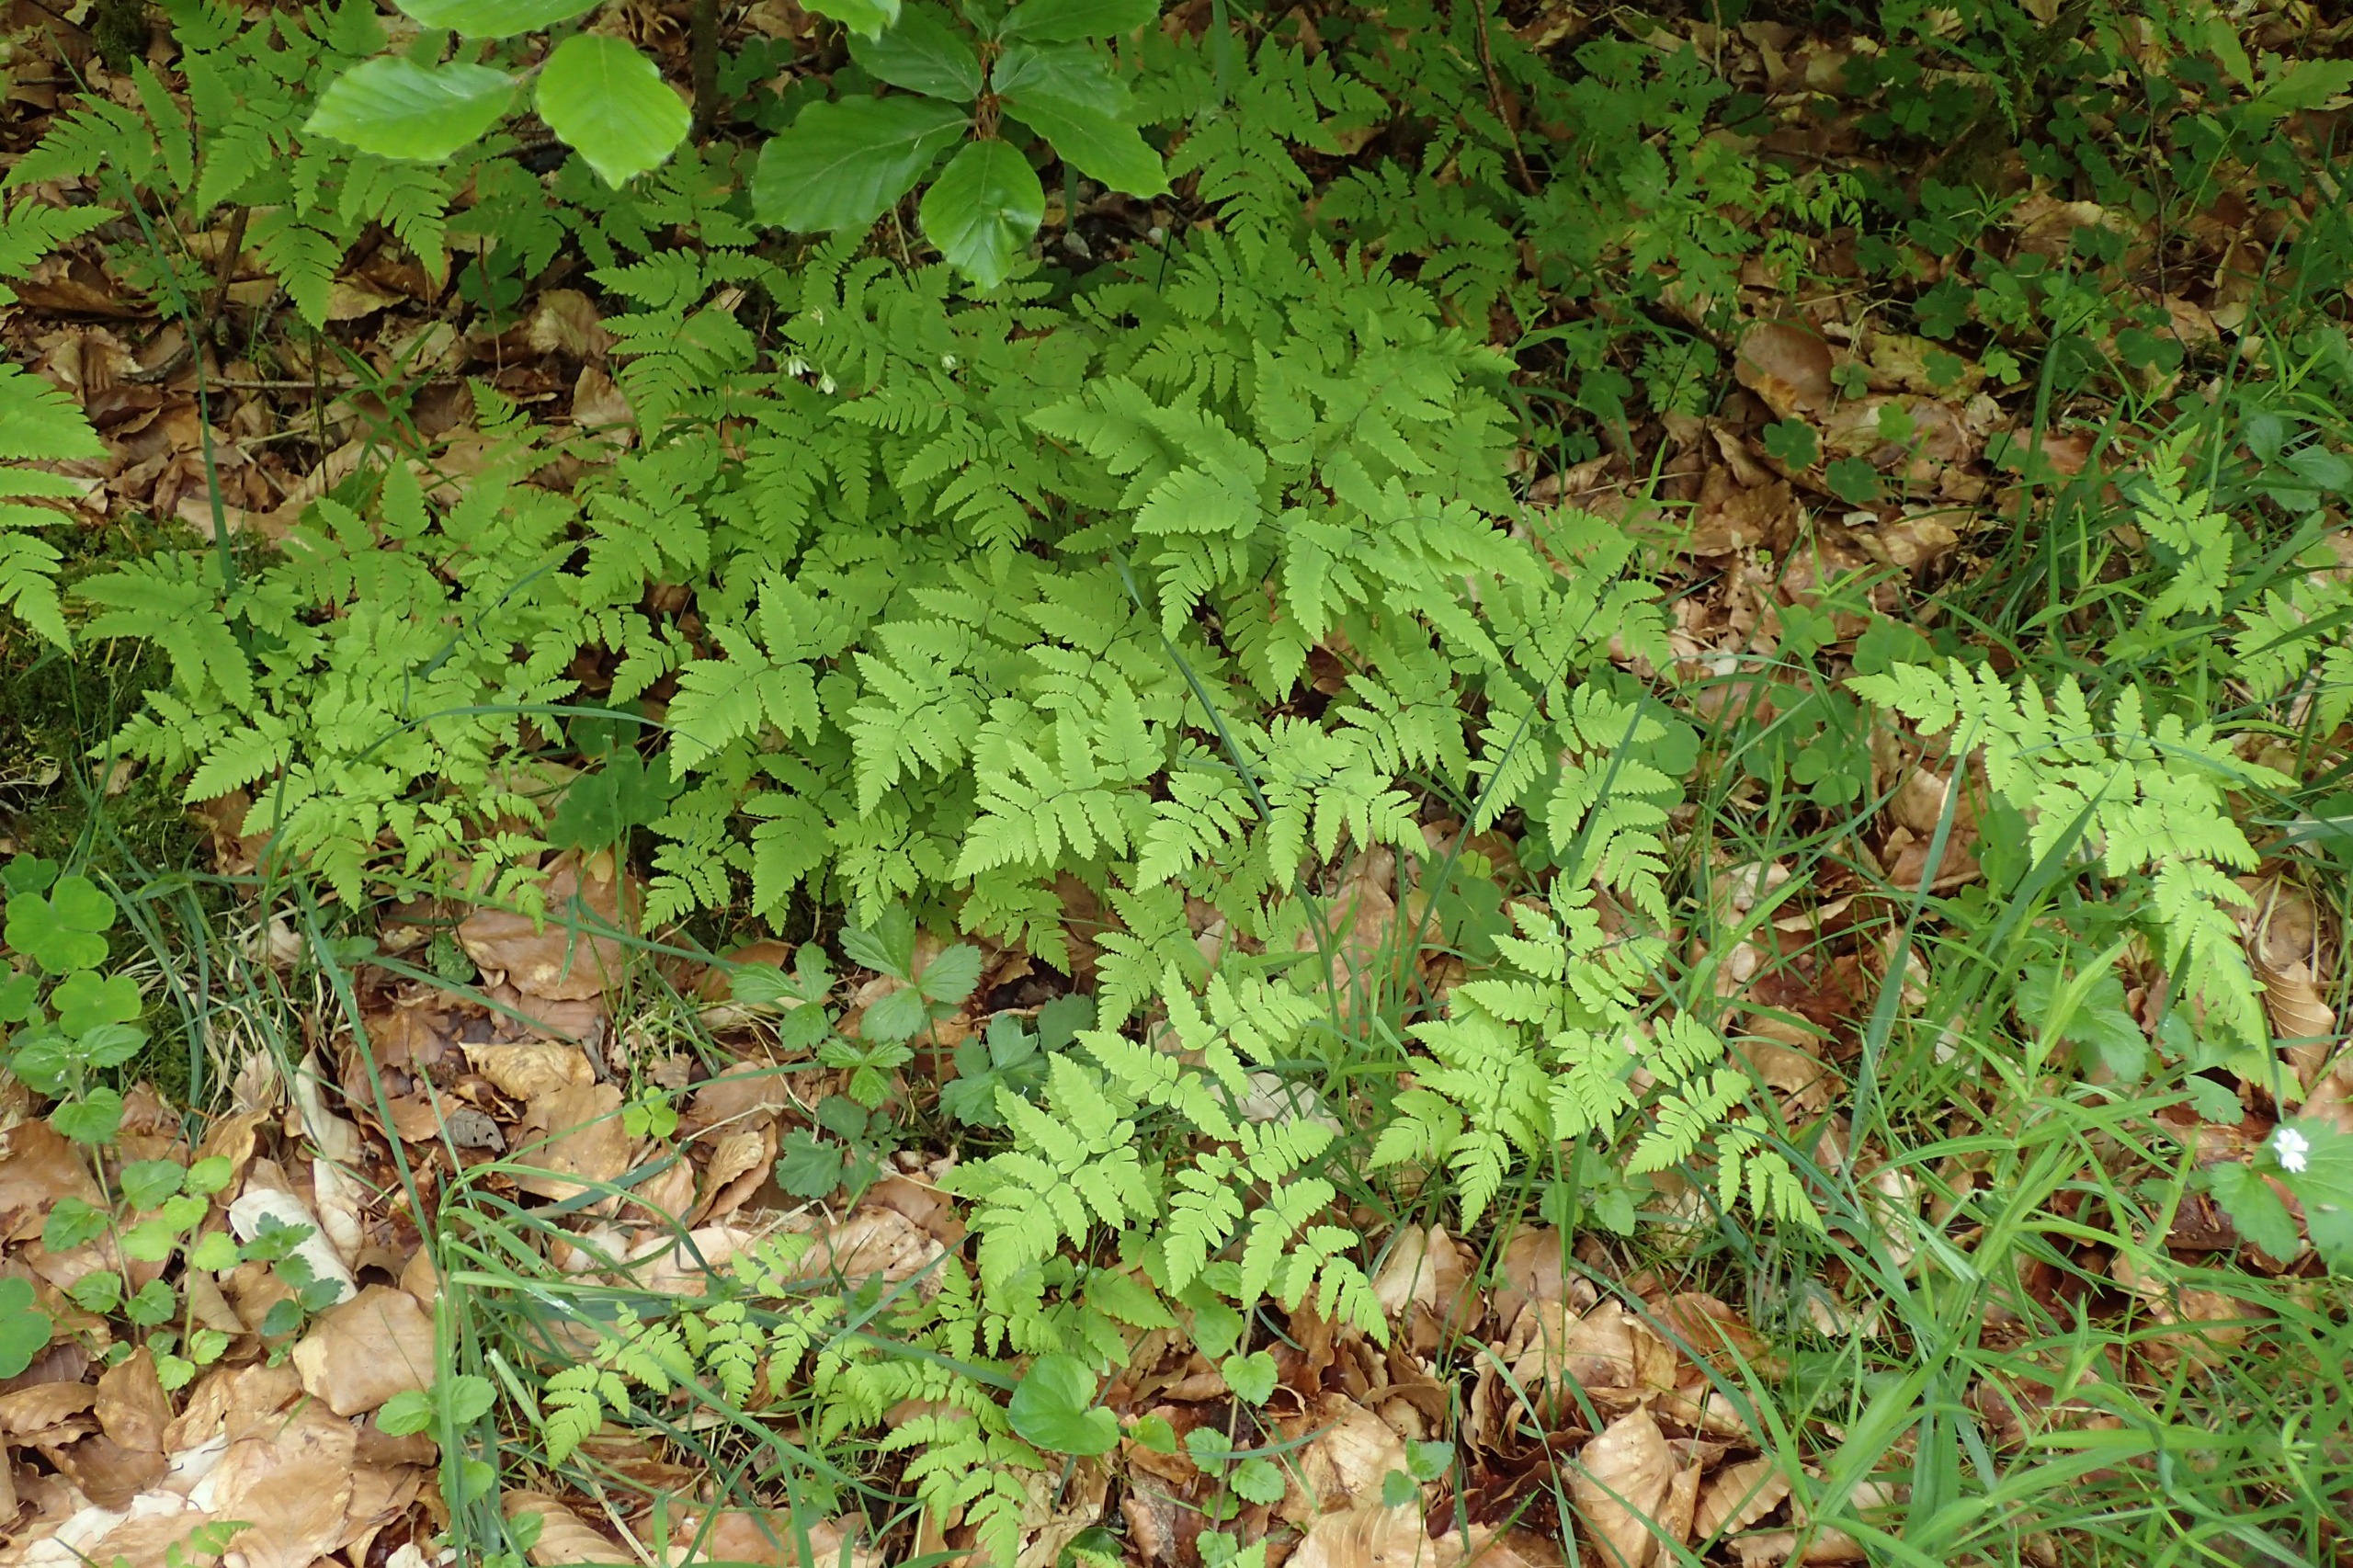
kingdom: Plantae
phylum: Tracheophyta
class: Polypodiopsida
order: Polypodiales
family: Cystopteridaceae
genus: Gymnocarpium
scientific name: Gymnocarpium dryopteris
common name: Tredelt egebregne
